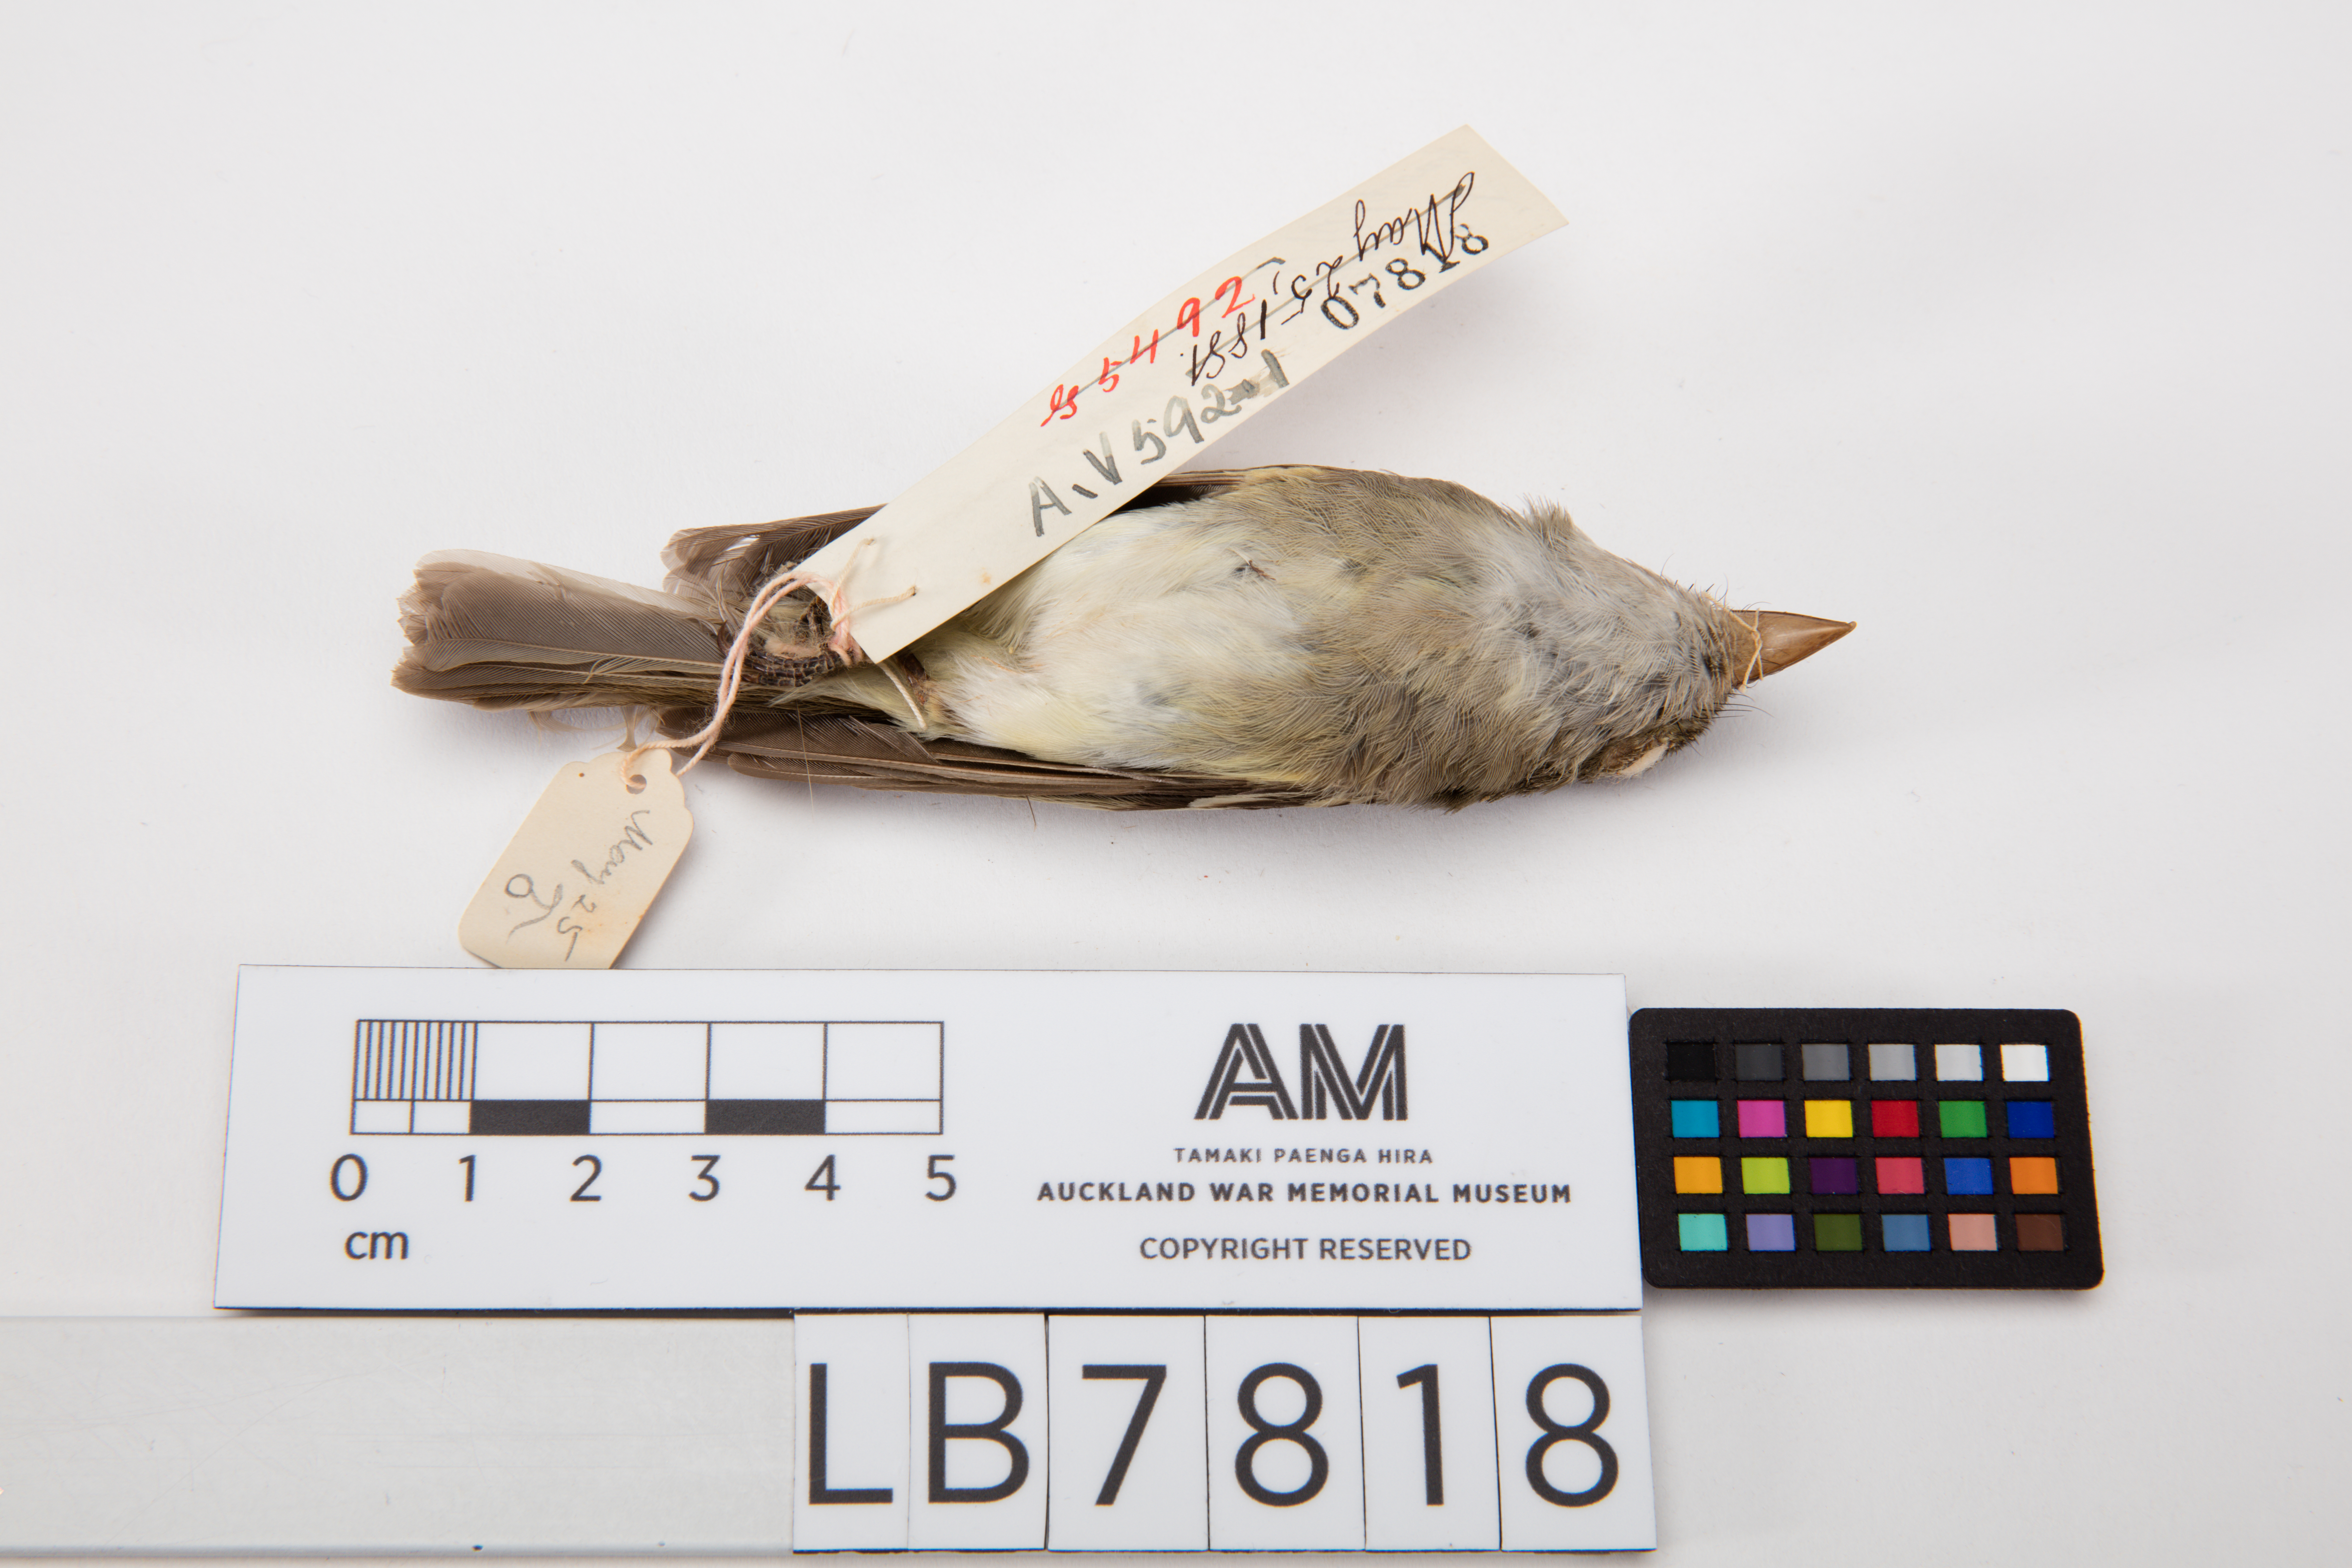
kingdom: Animalia
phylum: Chordata
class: Aves
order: Passeriformes
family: Tyrannidae
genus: Empidonax
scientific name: Empidonax virescens
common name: Acadian flycatcher
